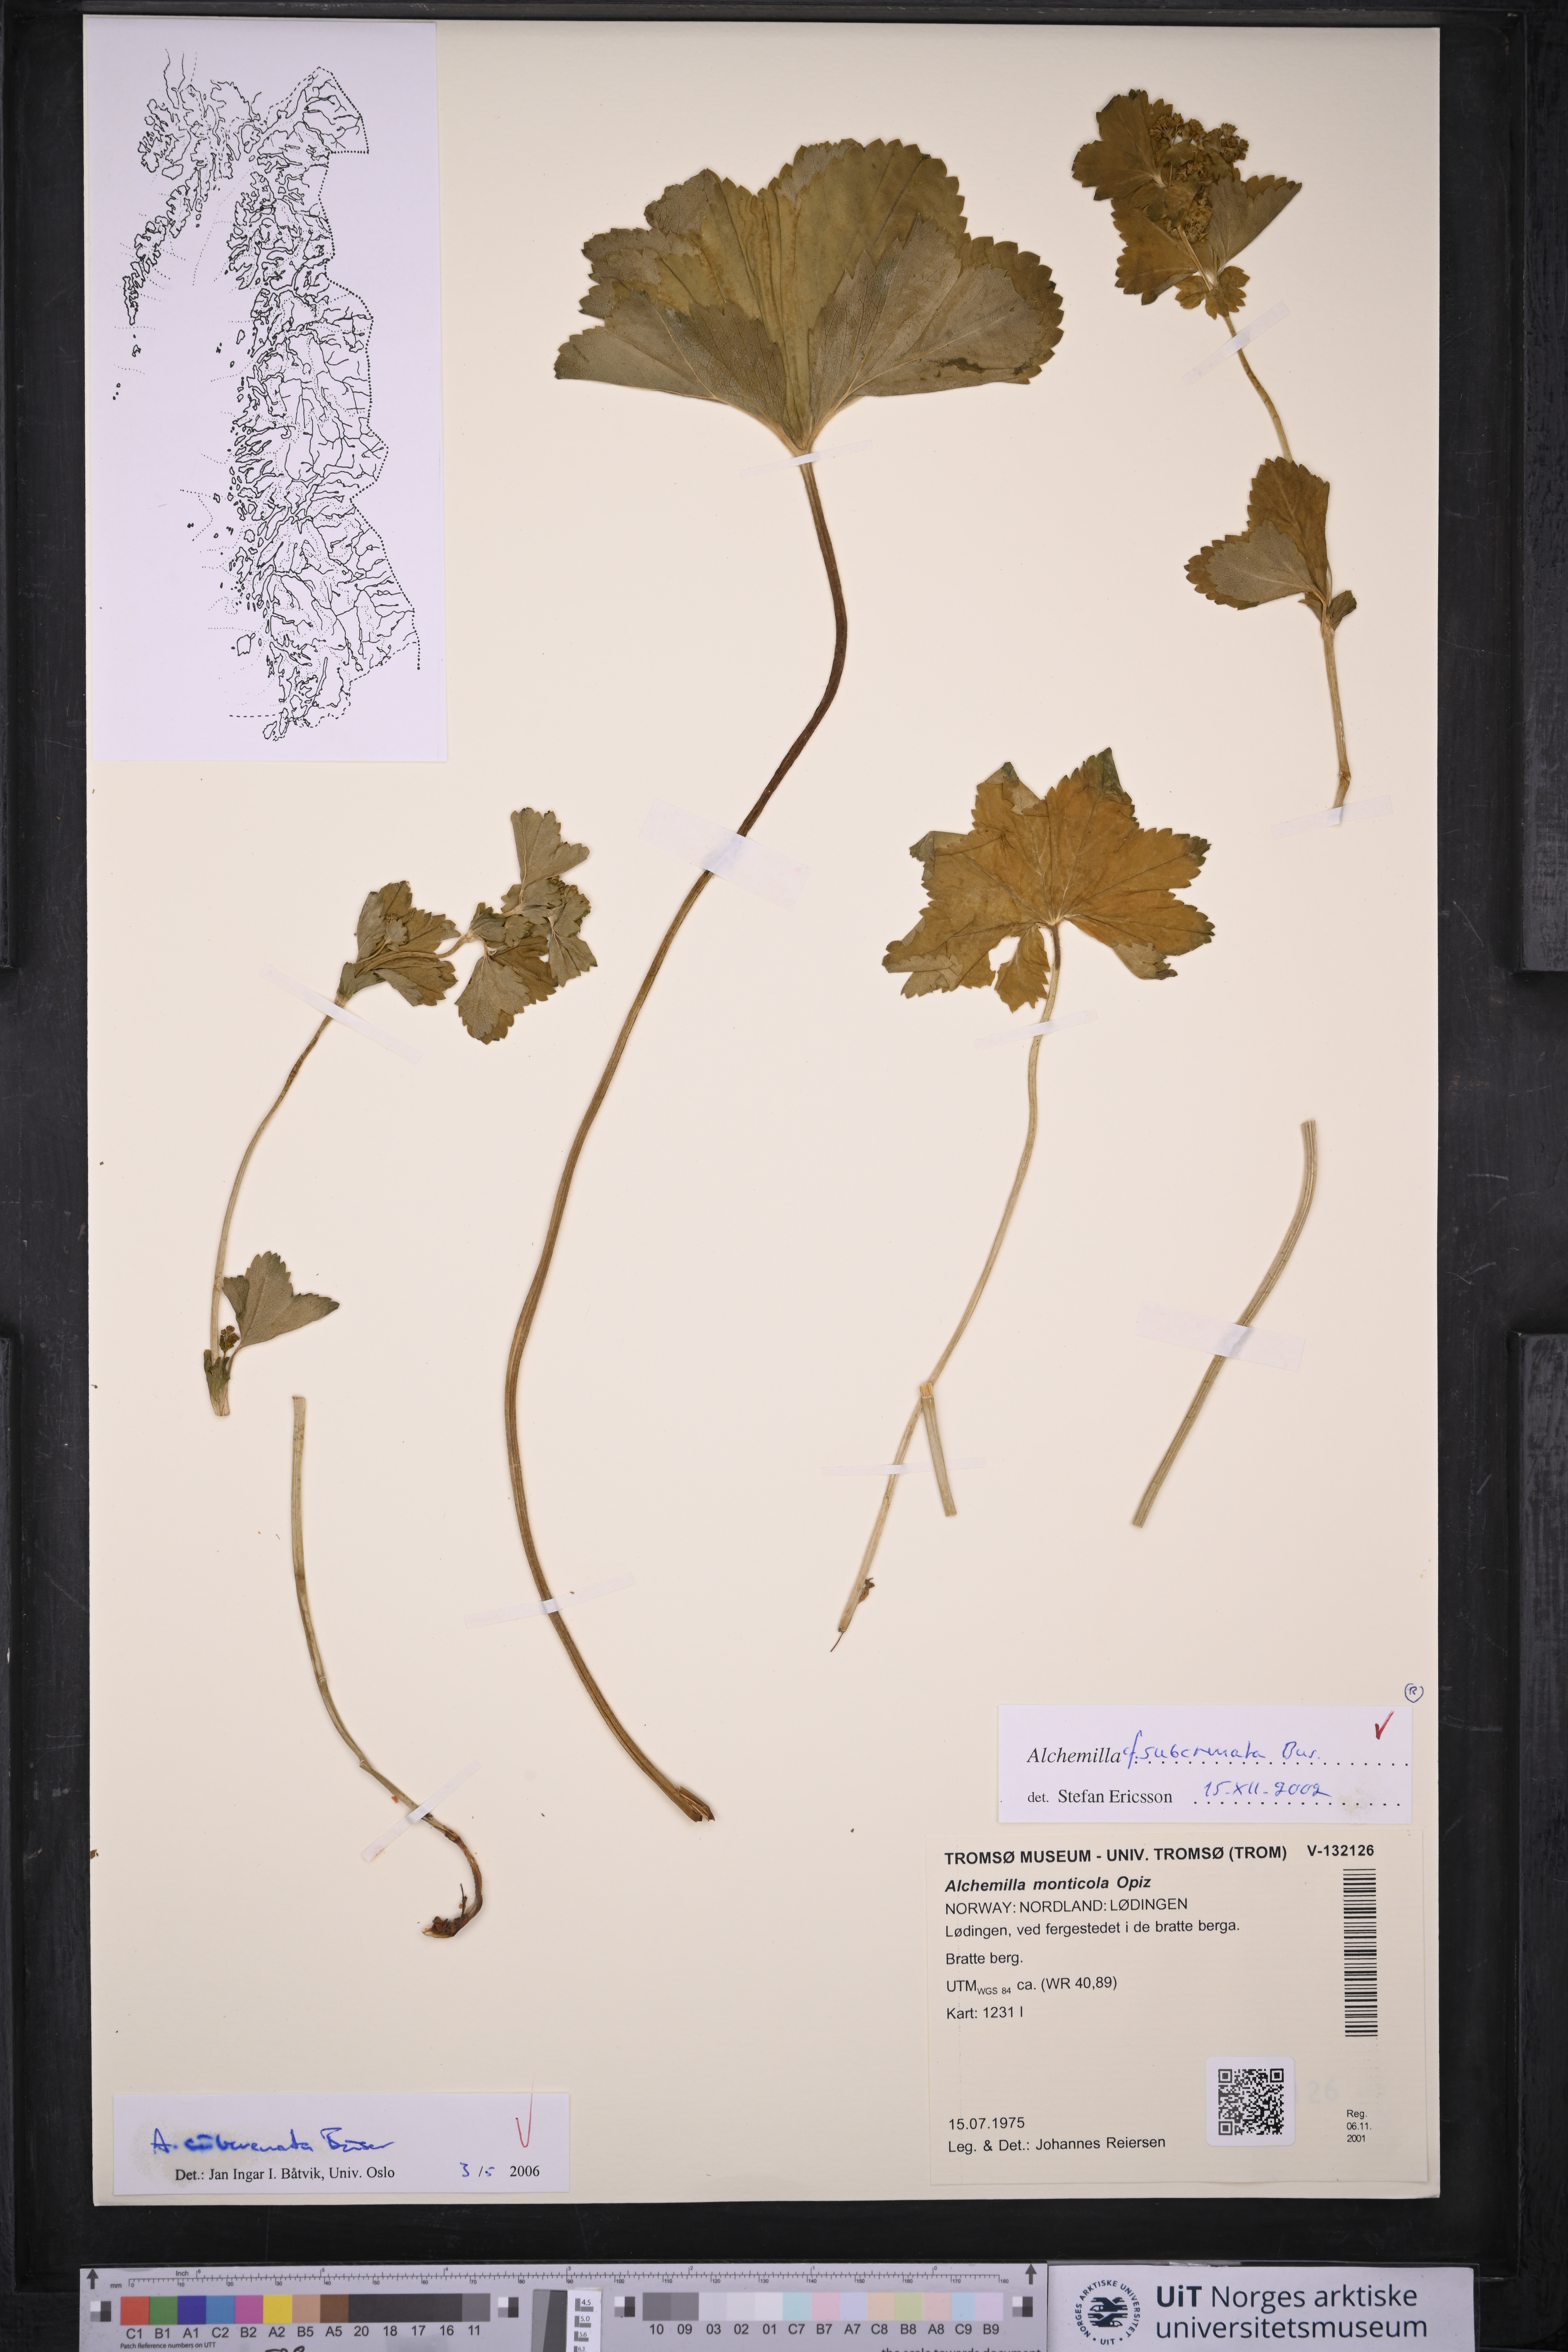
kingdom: Plantae
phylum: Tracheophyta
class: Magnoliopsida
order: Rosales
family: Rosaceae
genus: Alchemilla
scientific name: Alchemilla subcrenata
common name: Broadtooth lady's mantle
